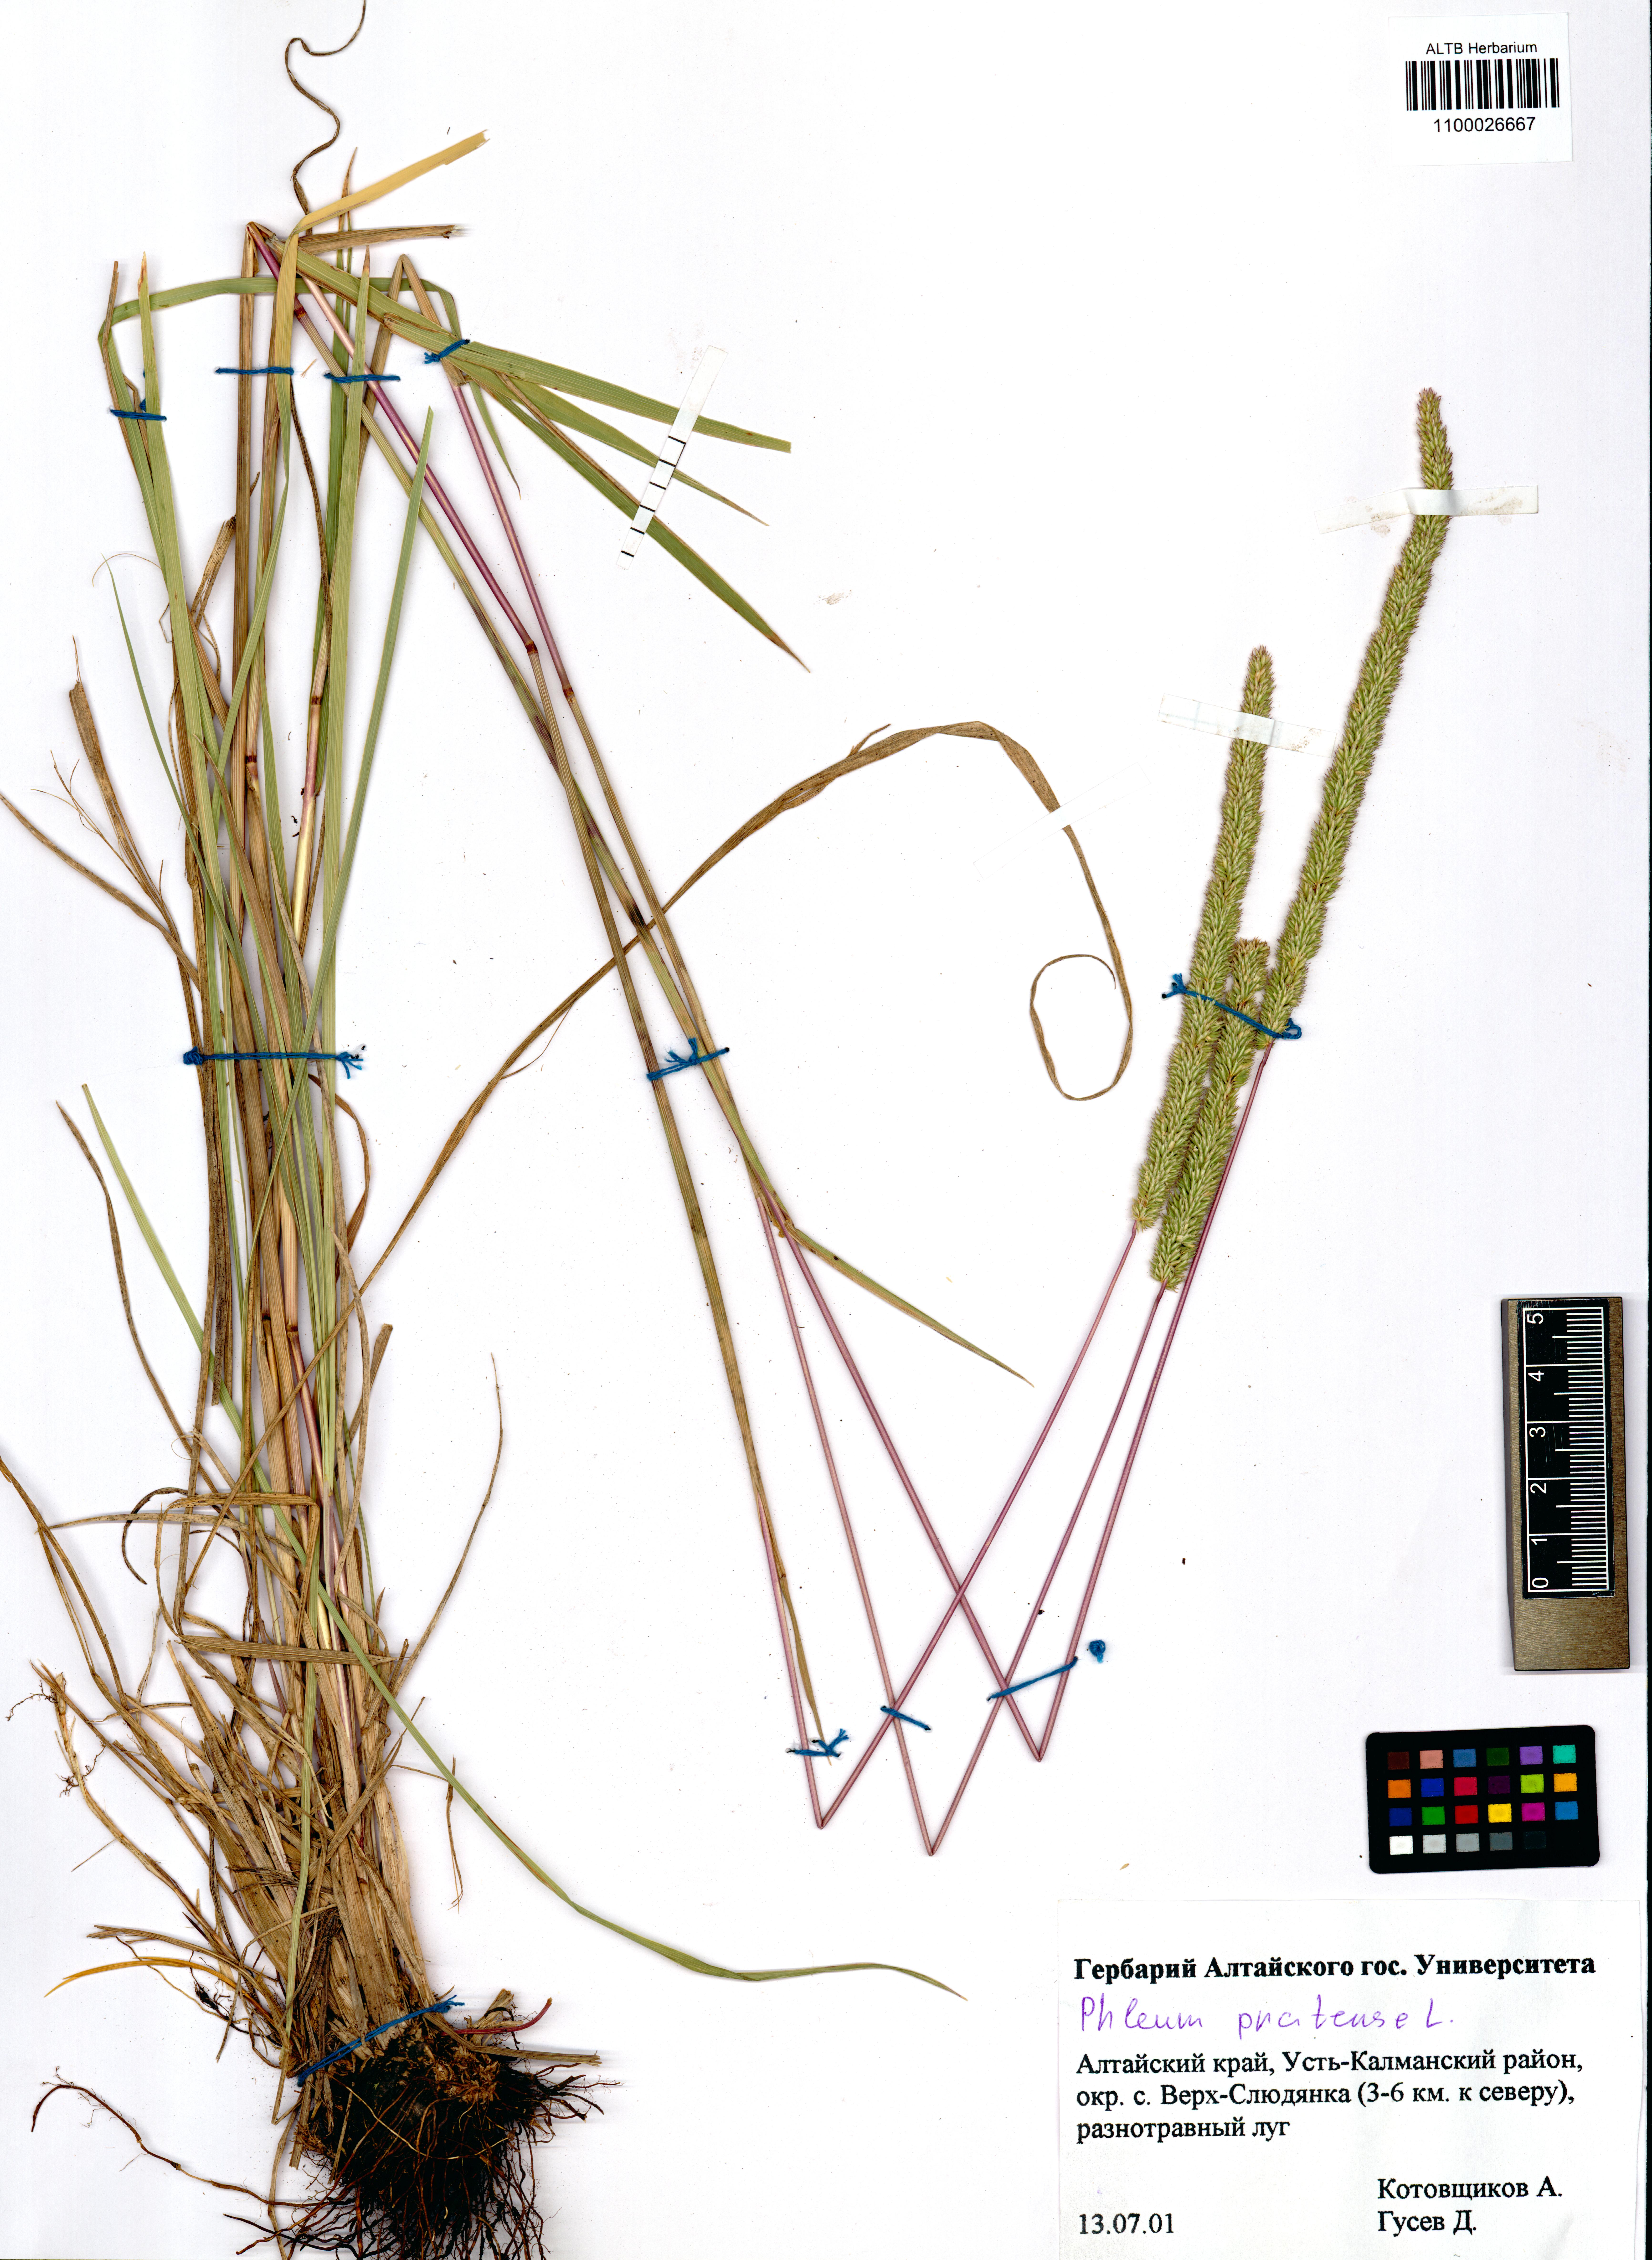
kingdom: Plantae
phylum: Tracheophyta
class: Liliopsida
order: Poales
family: Poaceae
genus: Phleum
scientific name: Phleum pratense
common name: Timothy grass
